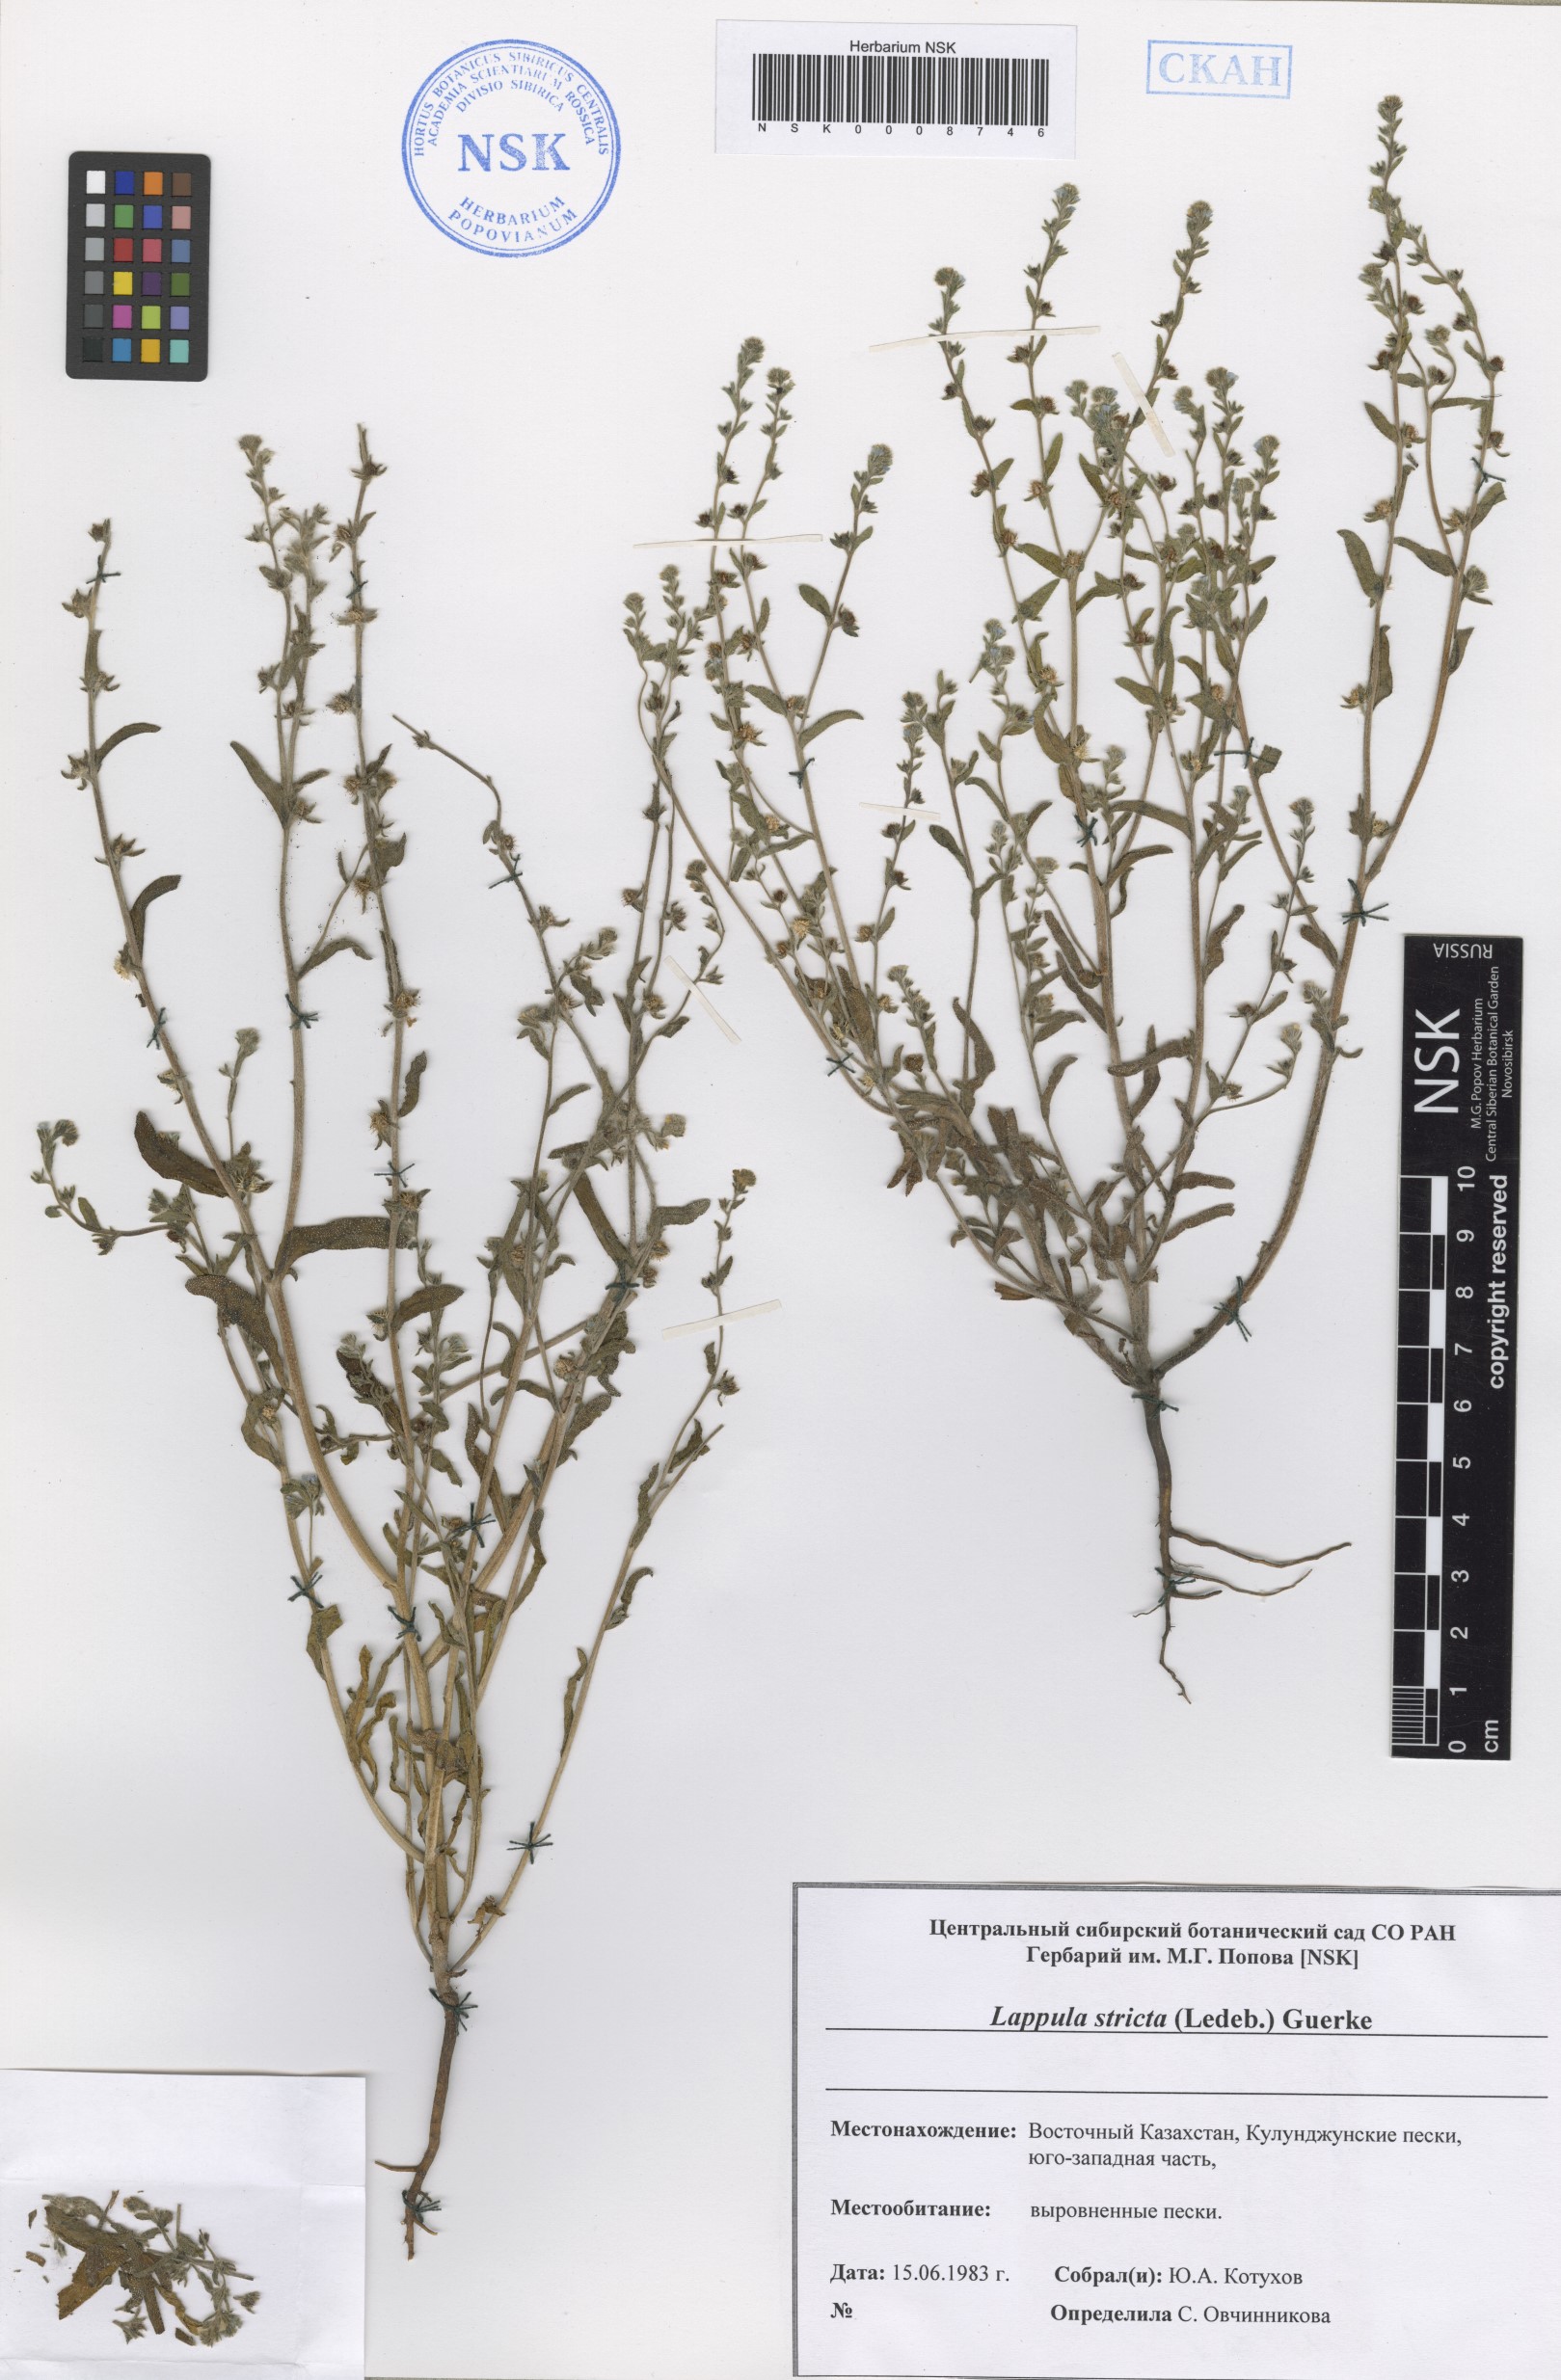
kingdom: Plantae
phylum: Tracheophyta
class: Magnoliopsida
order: Boraginales
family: Boraginaceae
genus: Lappula
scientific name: Lappula stricta
